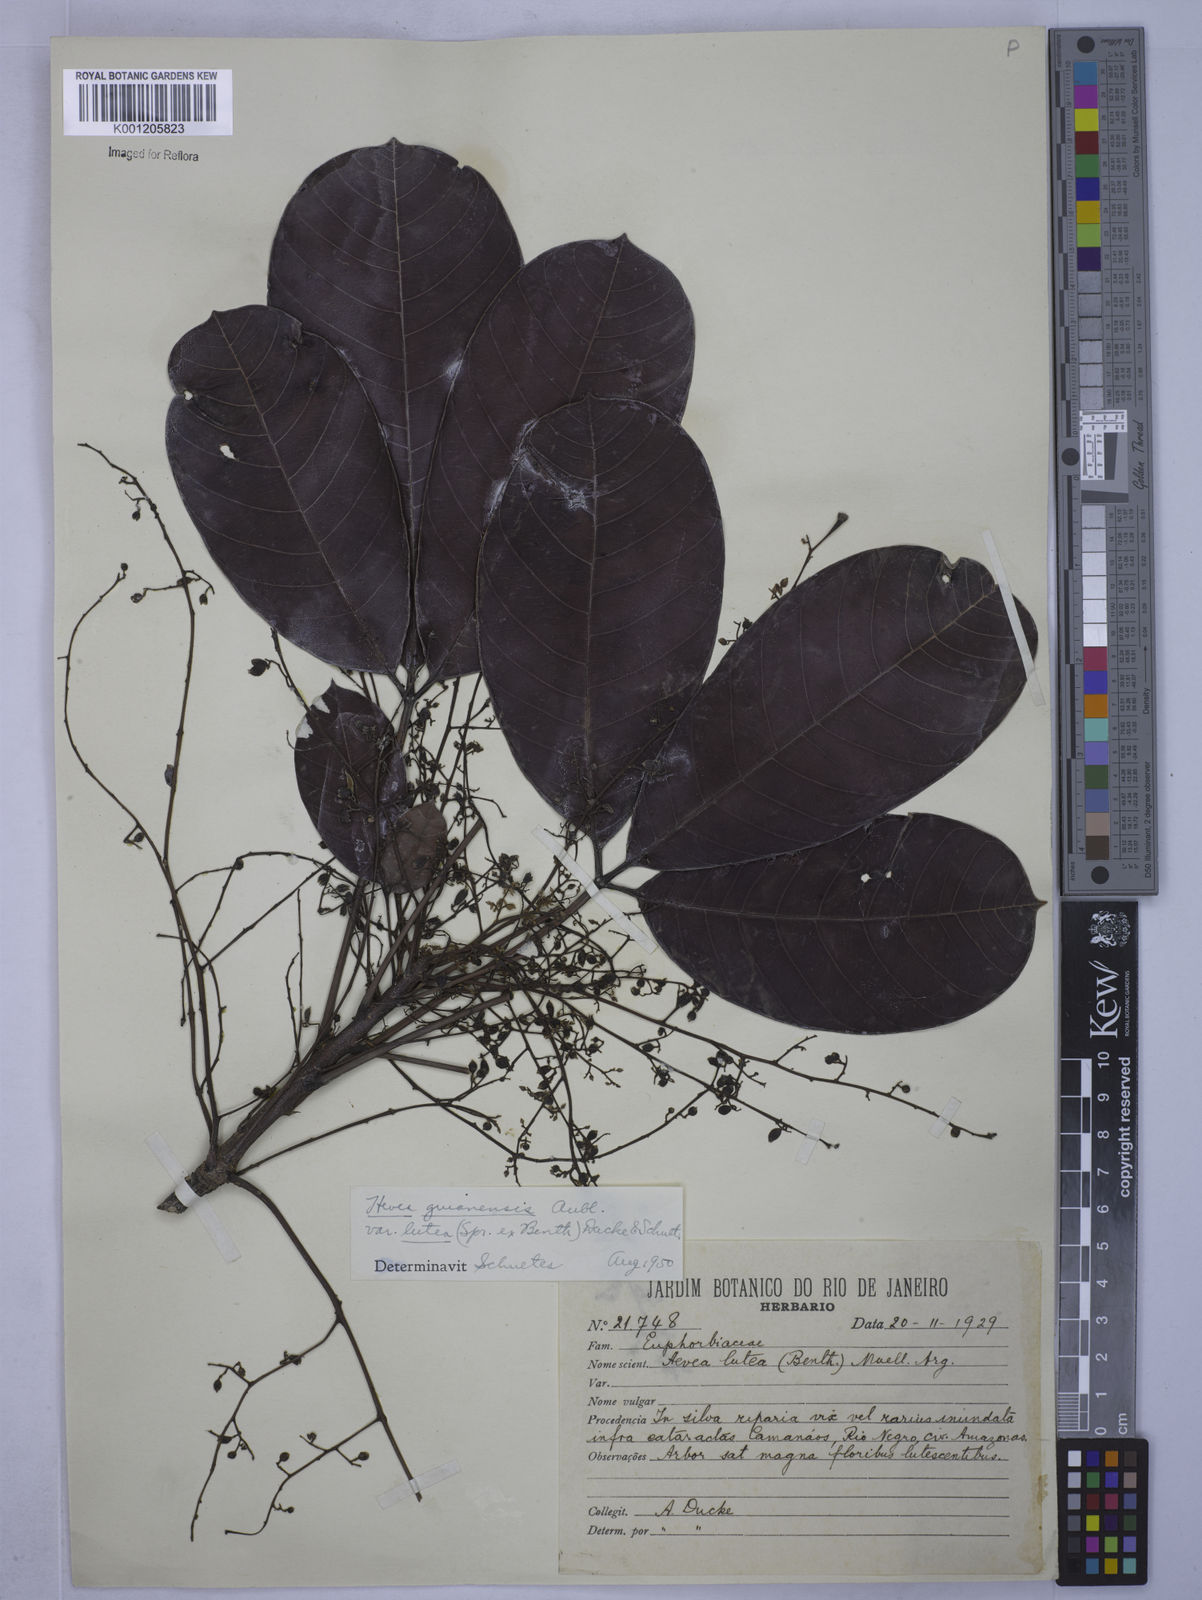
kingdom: Plantae
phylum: Tracheophyta
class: Magnoliopsida
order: Malpighiales
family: Euphorbiaceae
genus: Hevea
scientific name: Hevea guianensis
